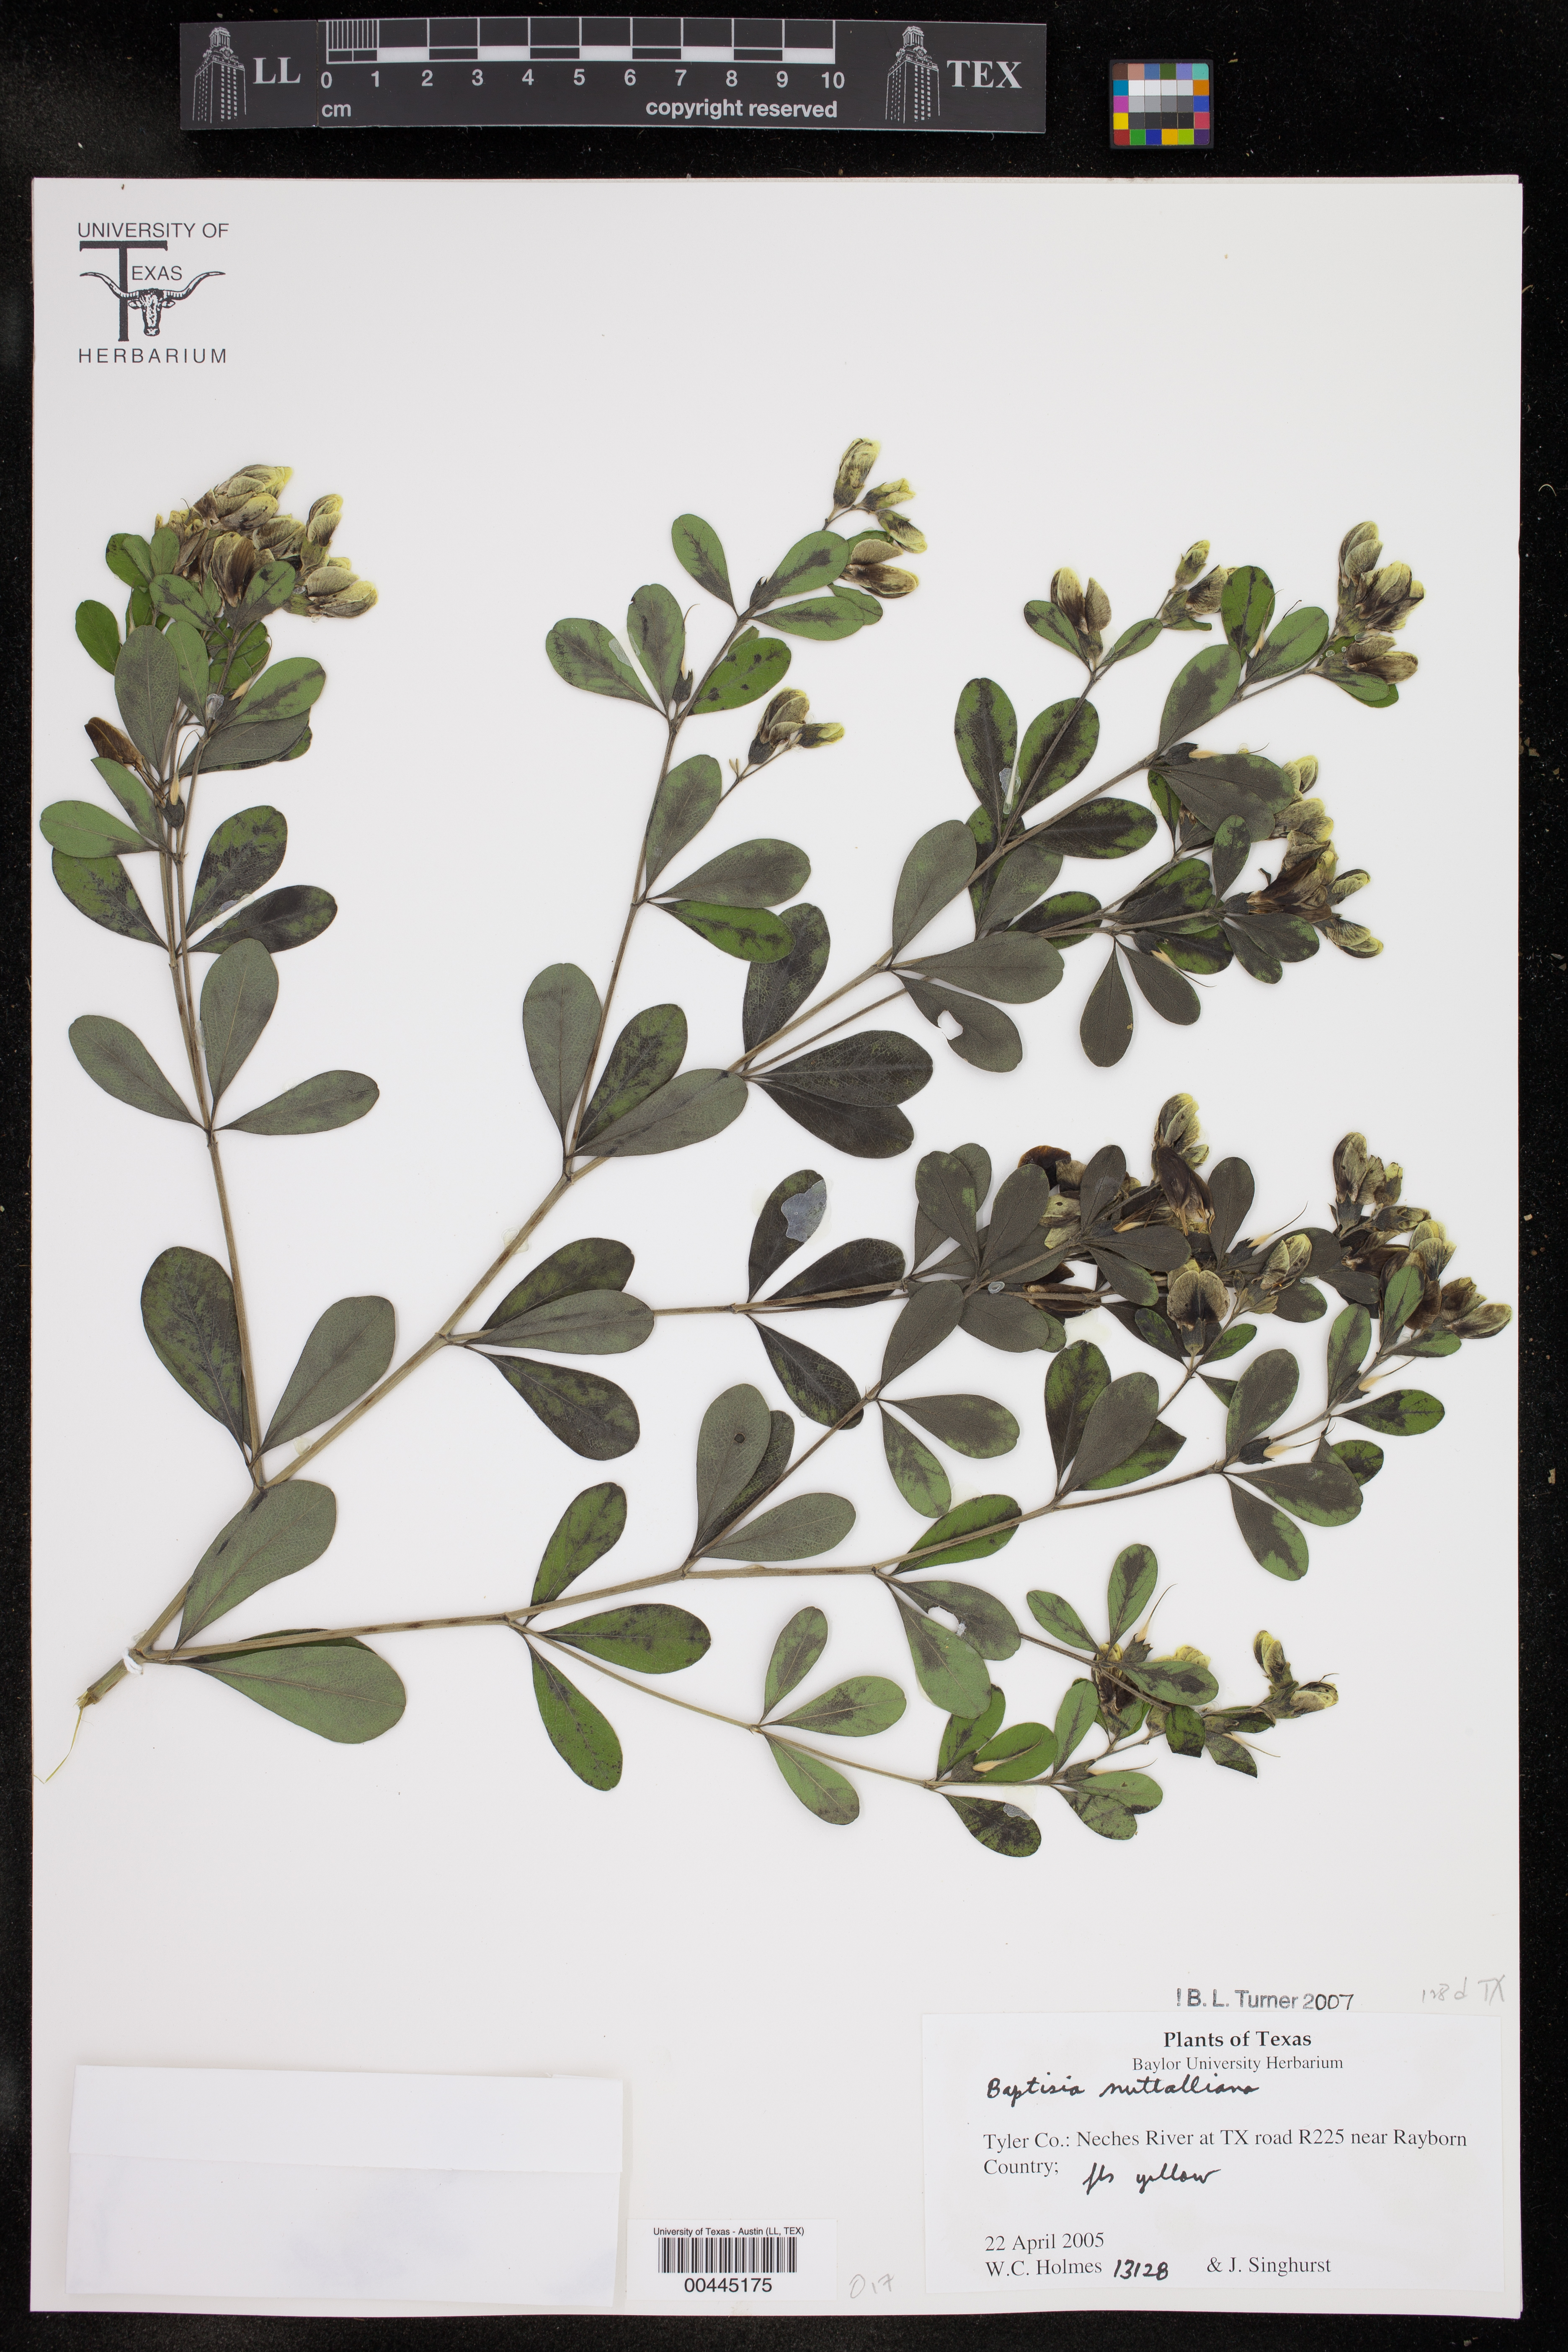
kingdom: Plantae
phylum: Tracheophyta
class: Magnoliopsida
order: Fabales
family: Fabaceae
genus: Baptisia
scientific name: Baptisia nuttalliana
